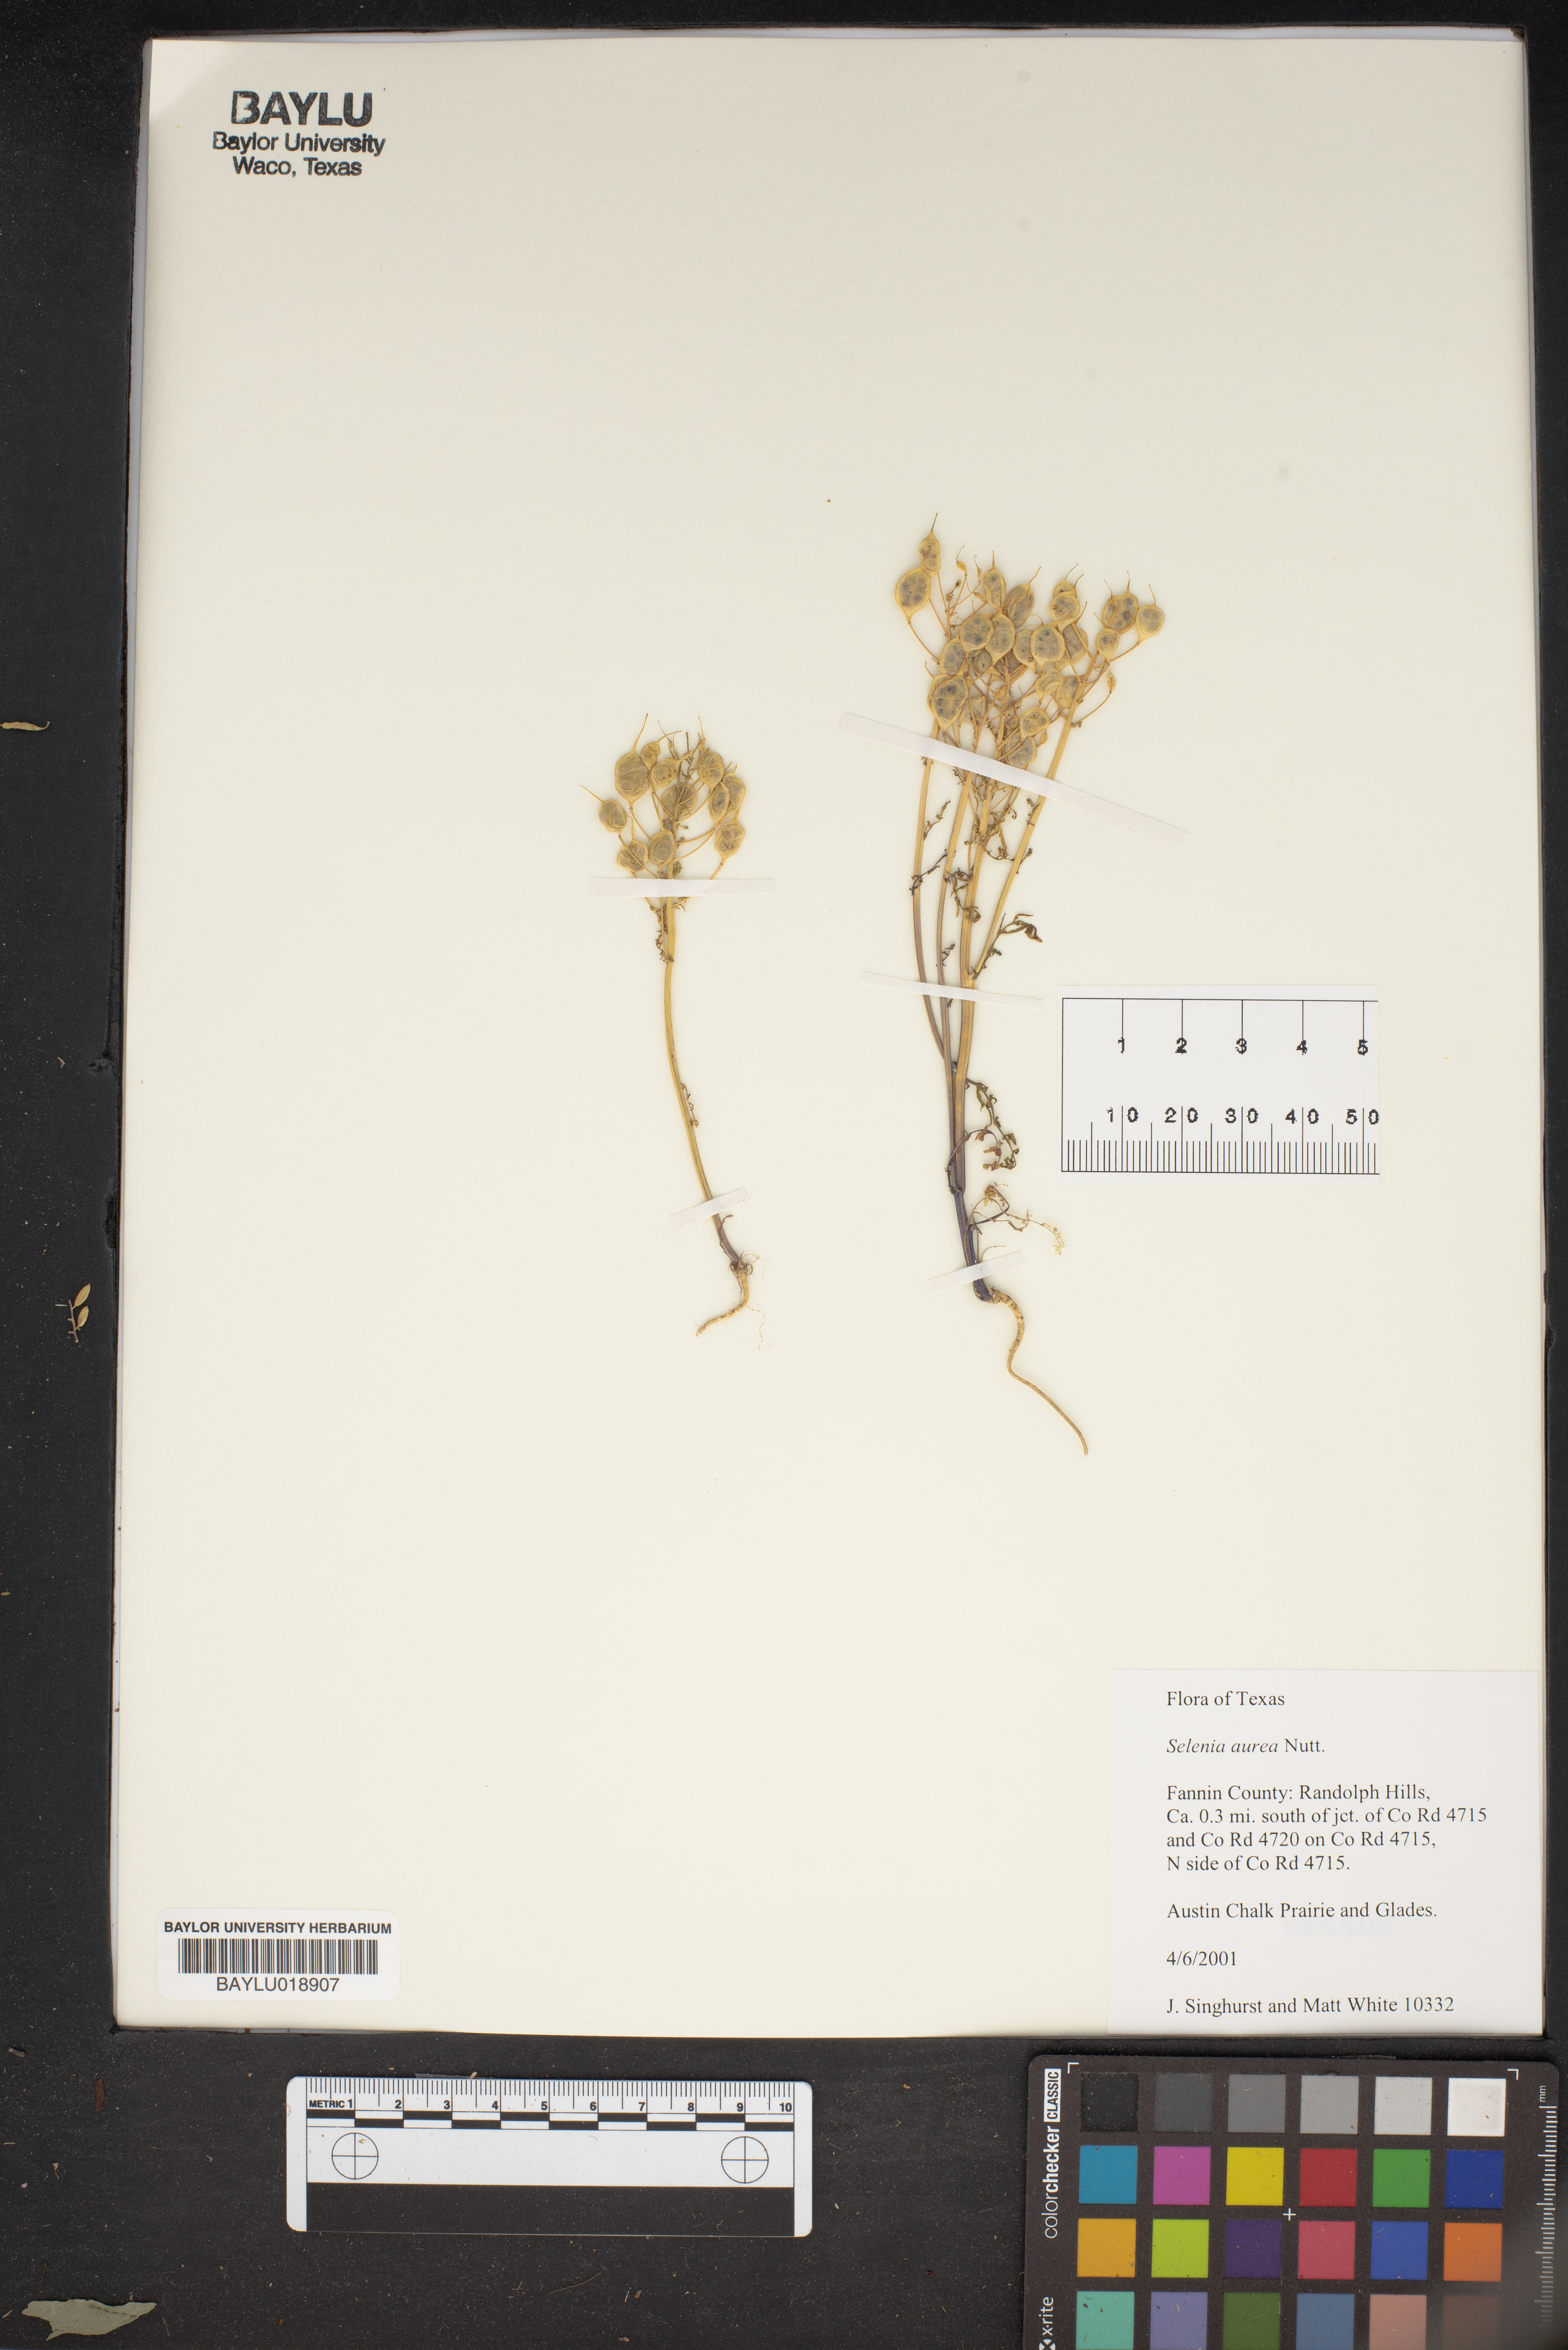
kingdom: Plantae
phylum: Tracheophyta
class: Magnoliopsida
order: Brassicales
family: Brassicaceae
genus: Selenia
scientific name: Selenia aurea
